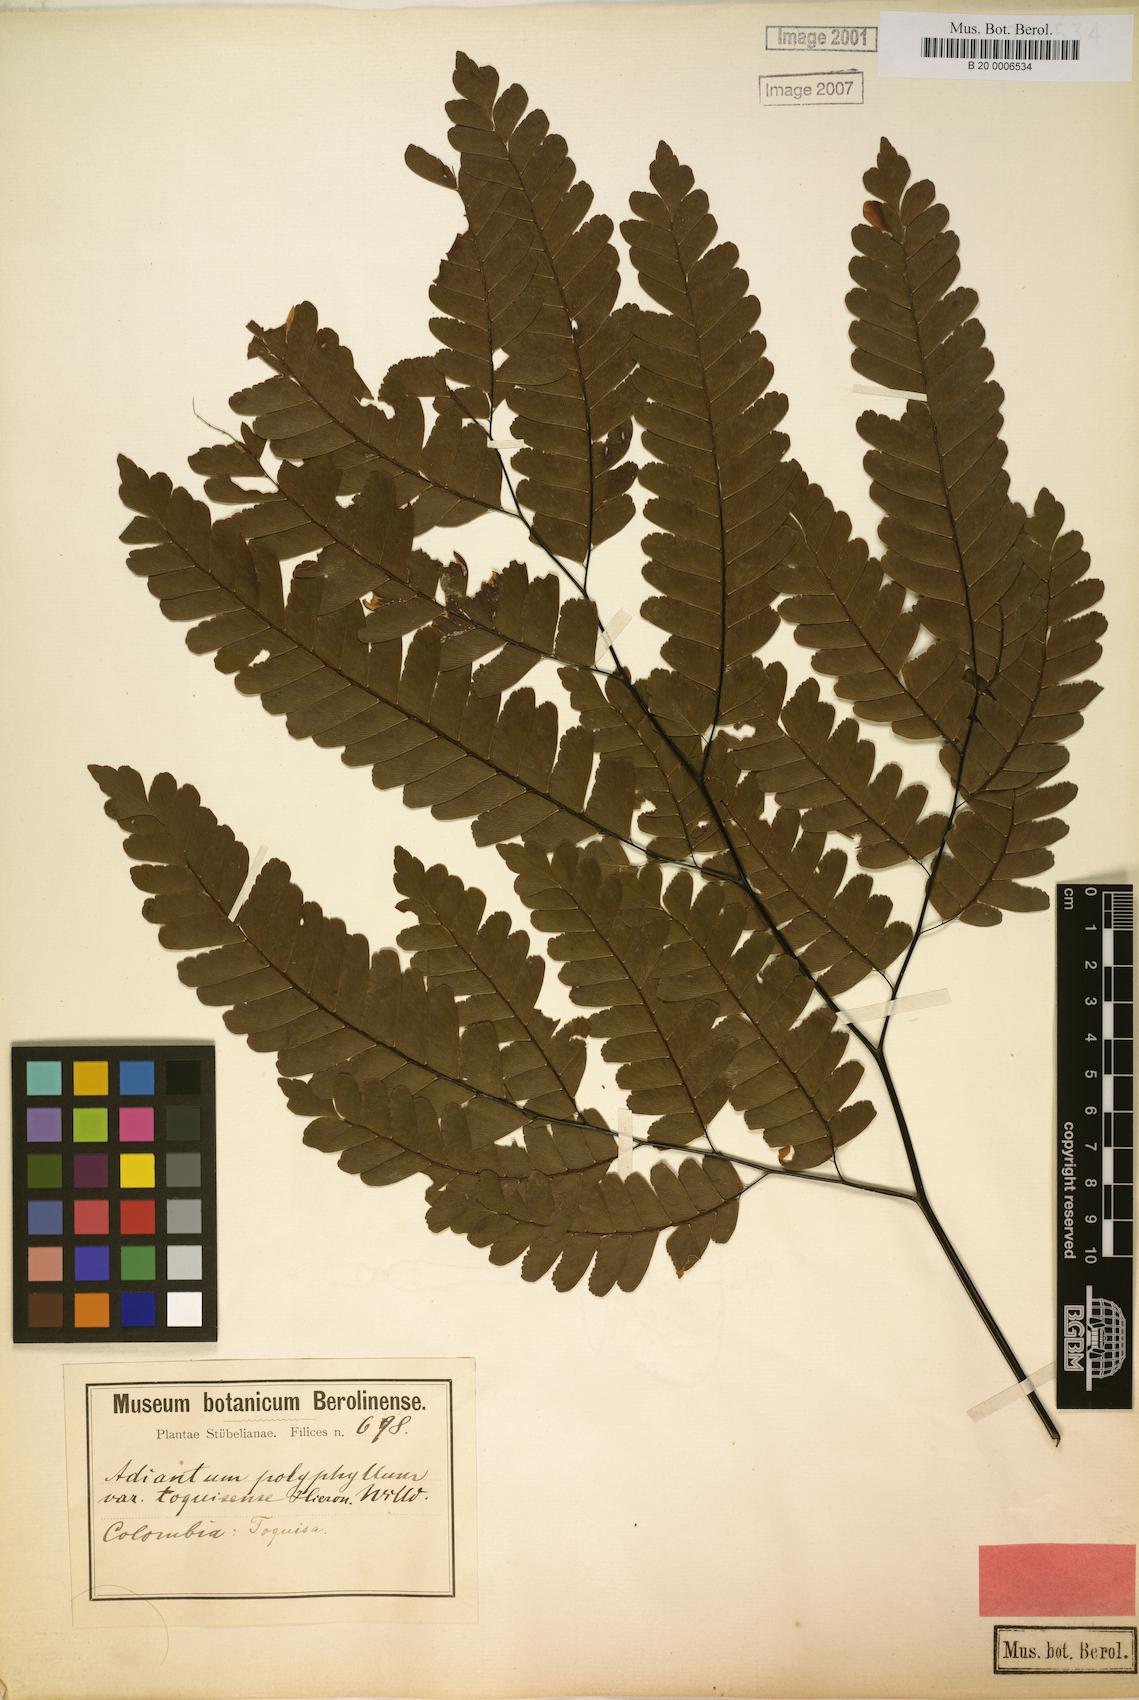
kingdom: Plantae
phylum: Tracheophyta
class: Polypodiopsida
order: Polypodiales
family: Pteridaceae
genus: Adiantum
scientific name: Adiantum polyphyllum
